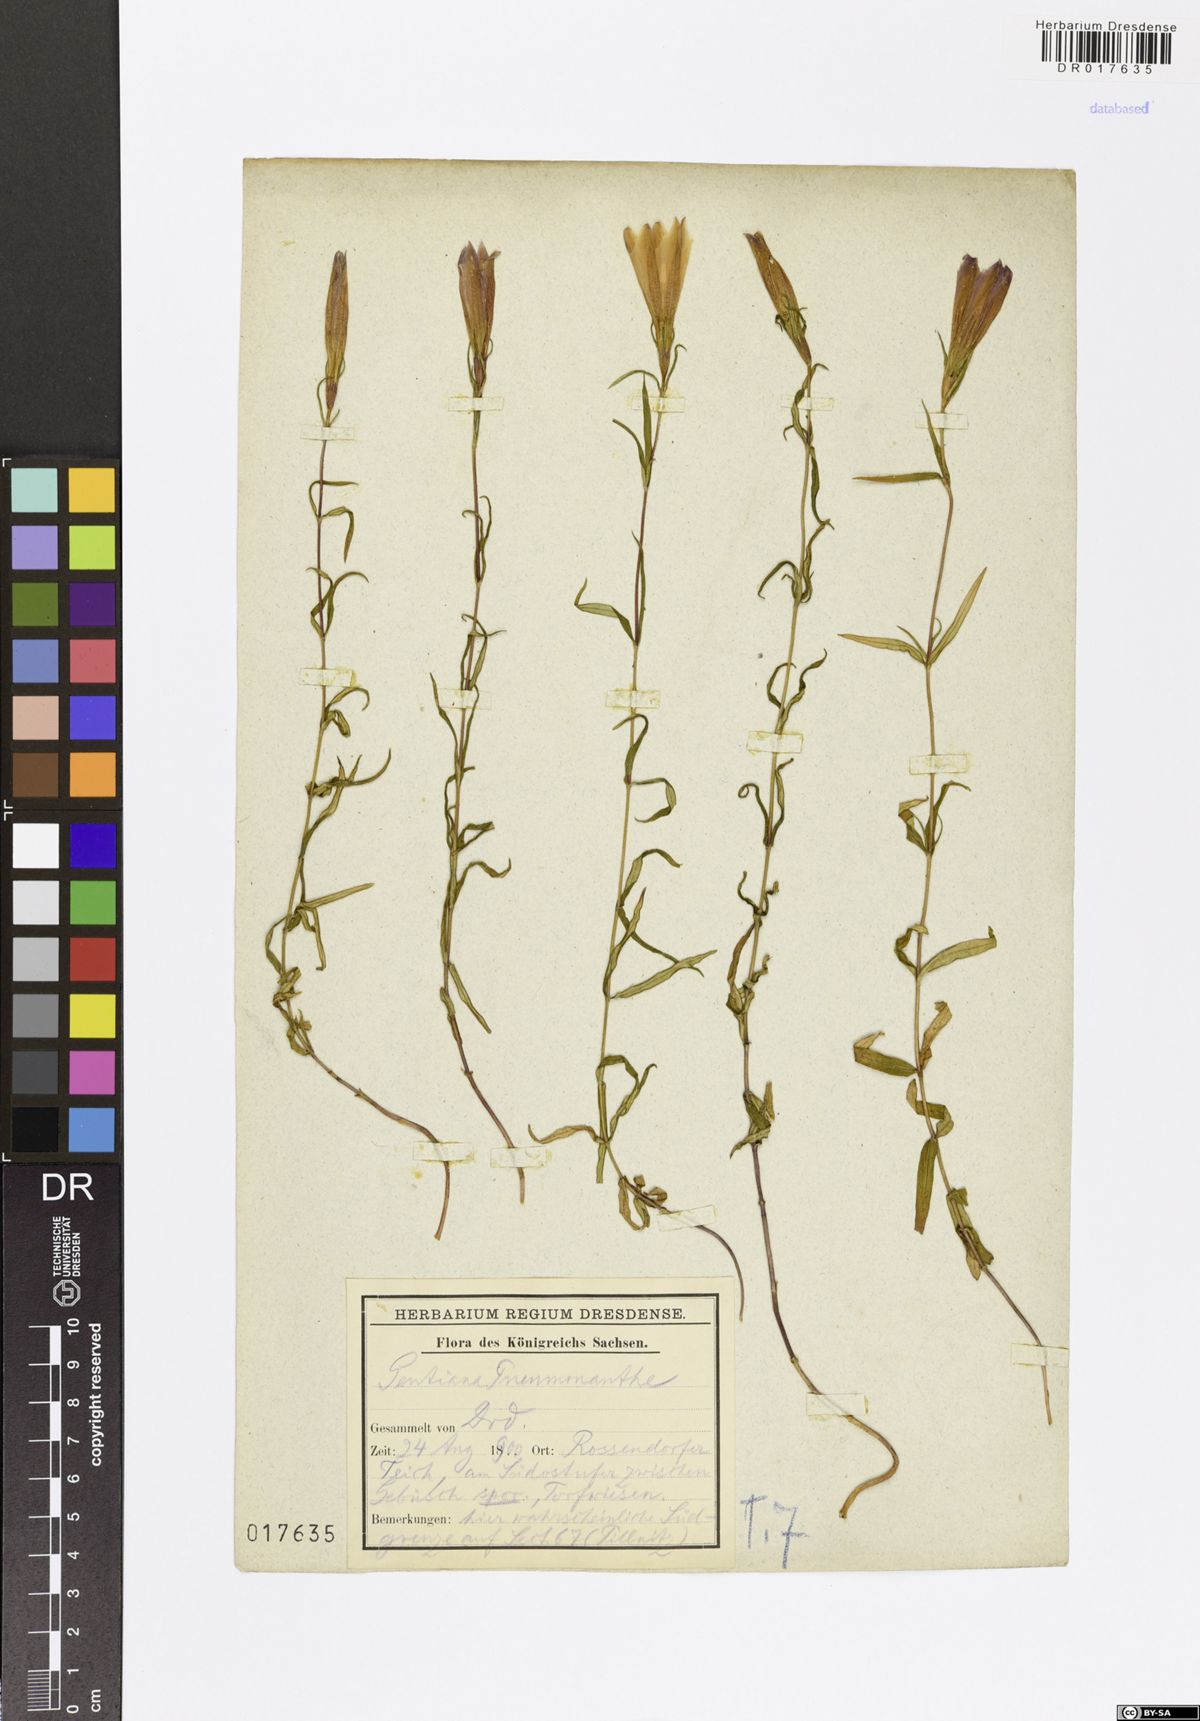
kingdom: Plantae
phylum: Tracheophyta
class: Magnoliopsida
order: Gentianales
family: Gentianaceae
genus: Gentiana
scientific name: Gentiana pneumonanthe
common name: Marsh gentian
